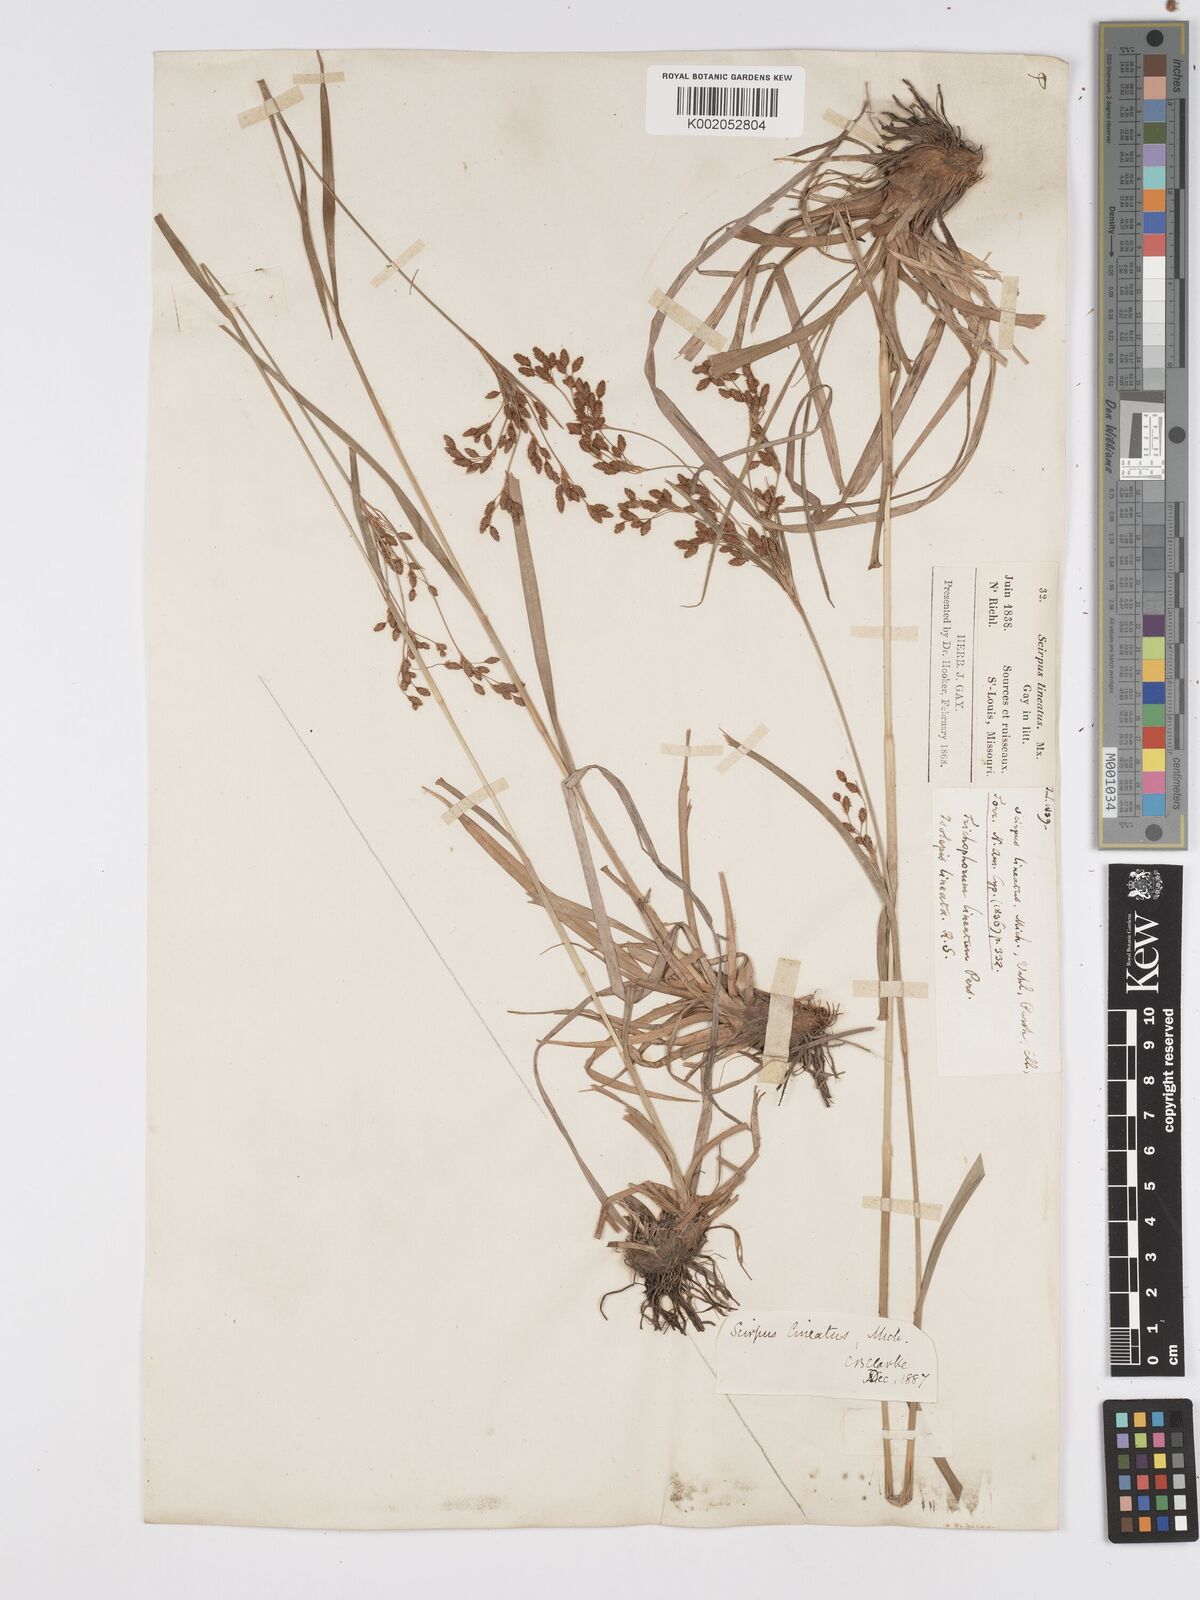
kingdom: Plantae
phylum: Tracheophyta
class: Liliopsida
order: Poales
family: Cyperaceae
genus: Scirpus
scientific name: Scirpus lineatus
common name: Drooping bulrush
